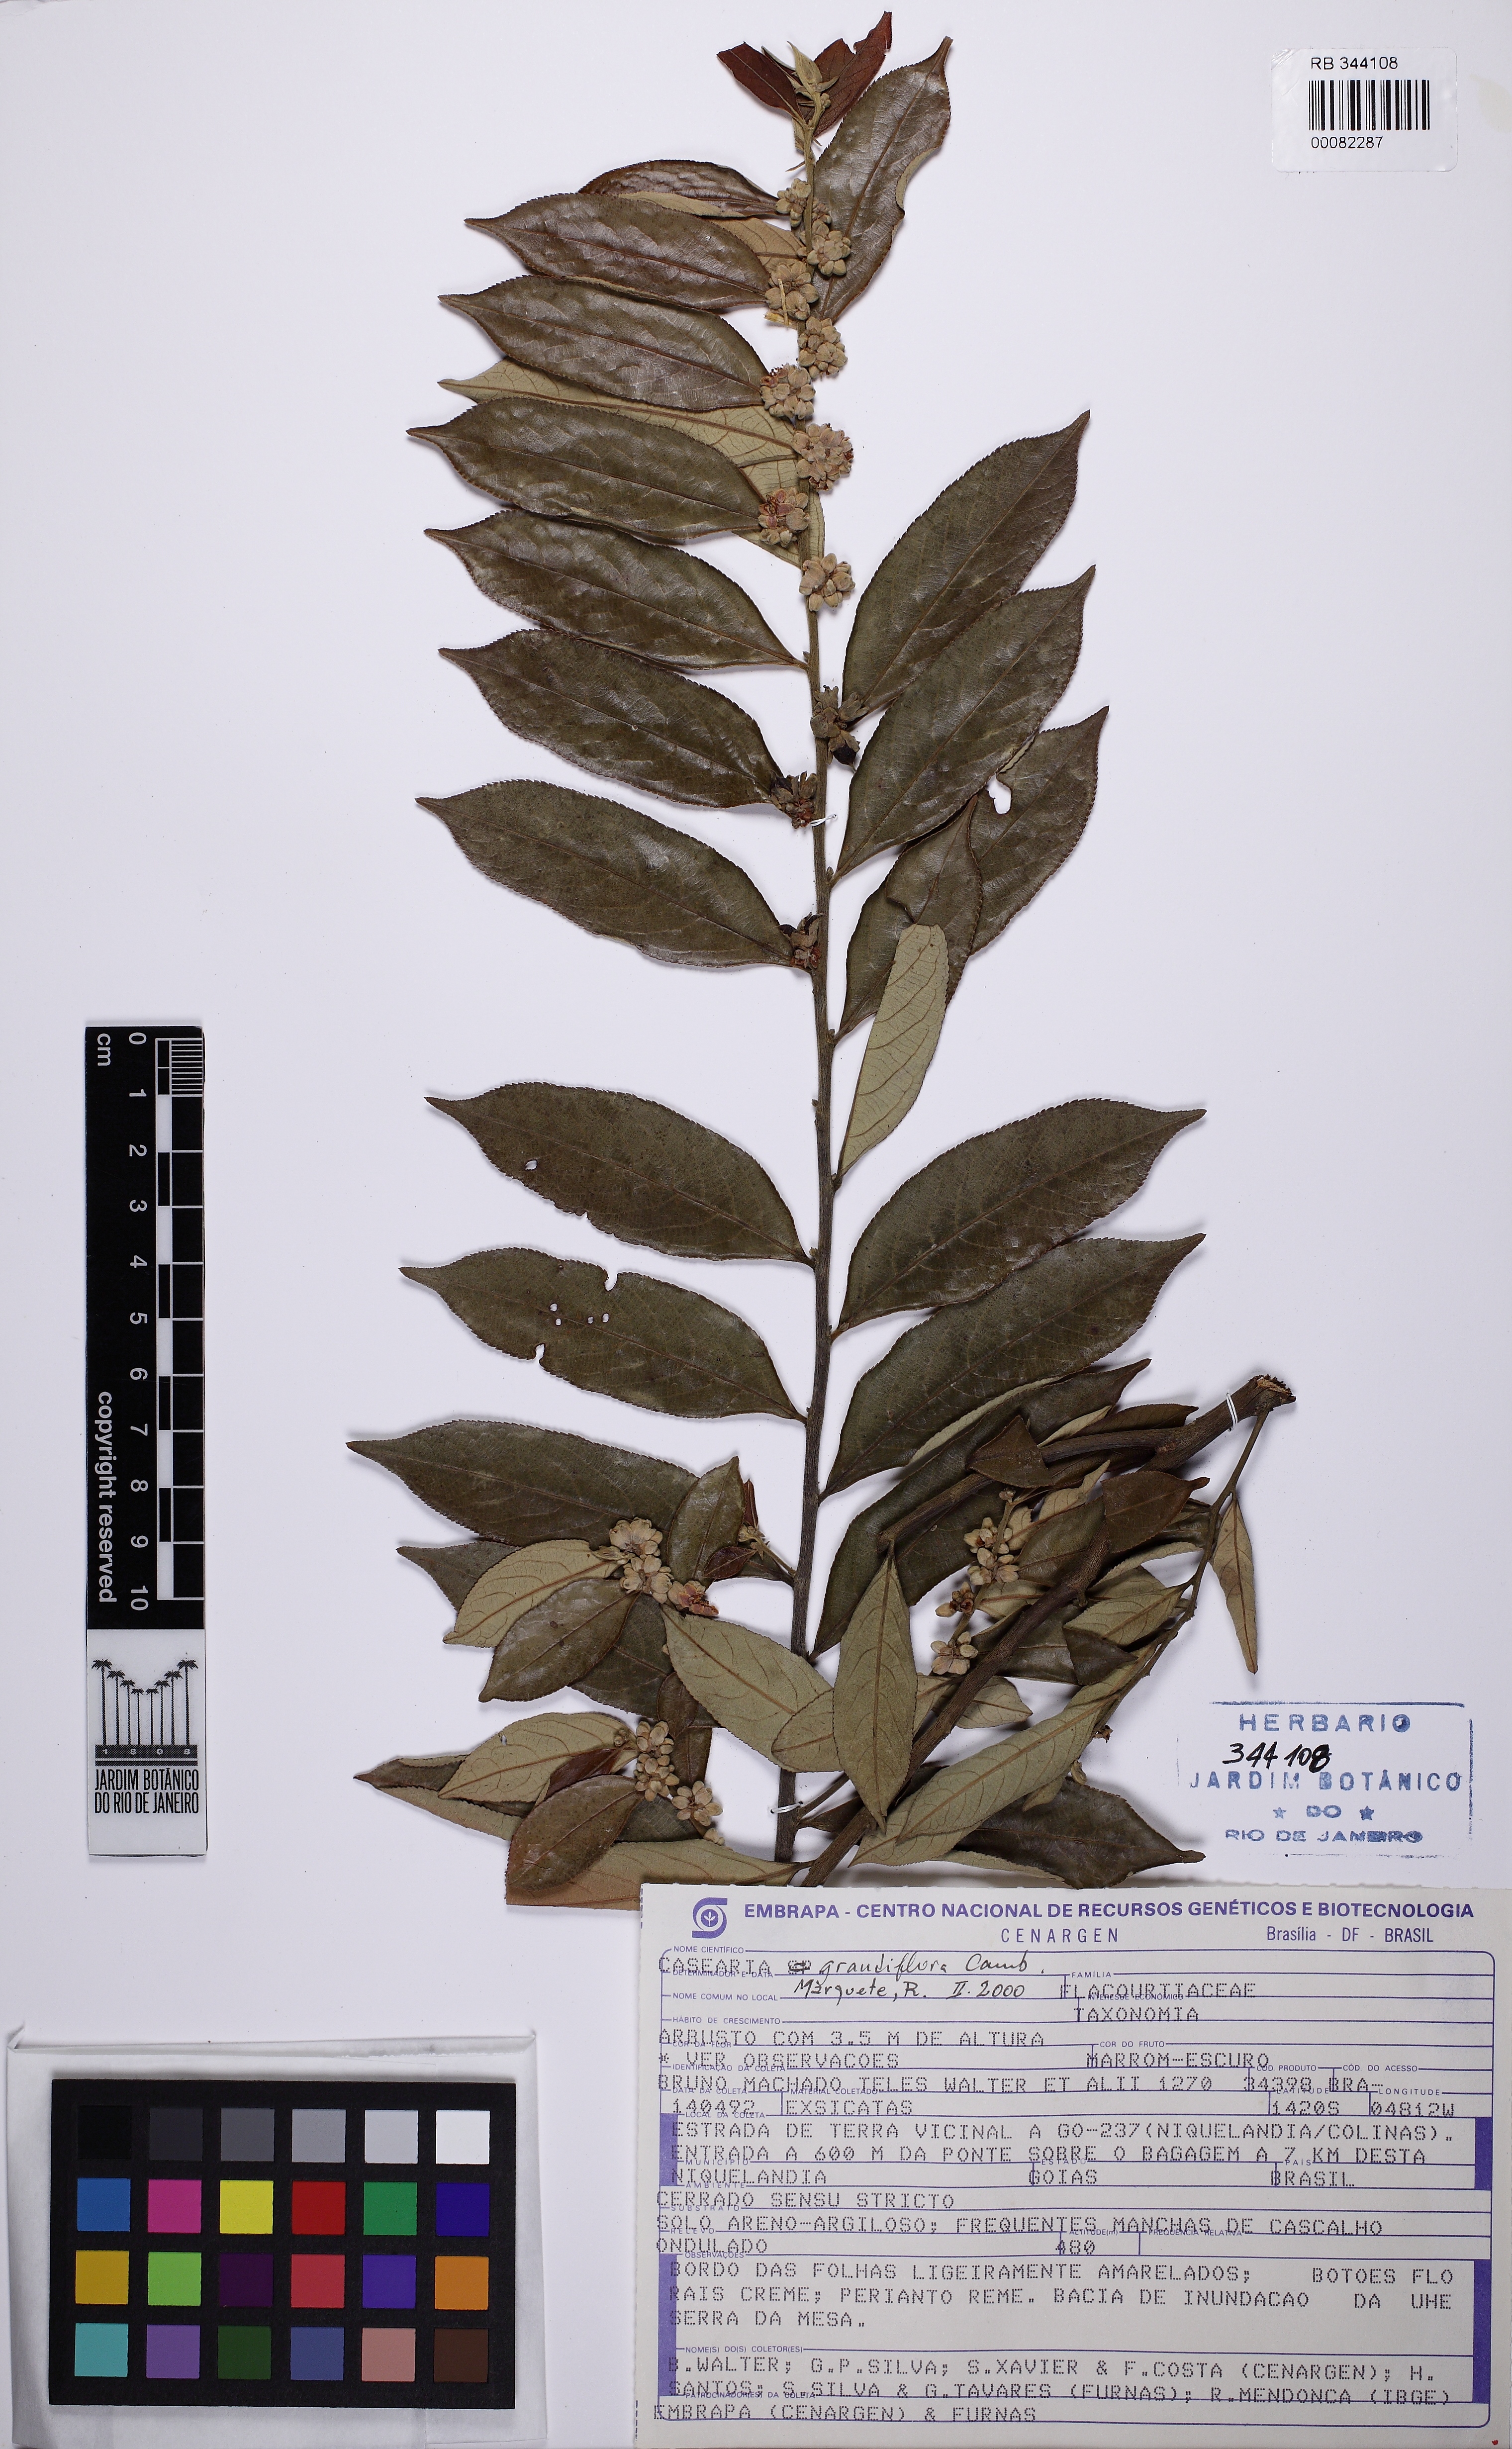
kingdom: Plantae
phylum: Tracheophyta
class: Magnoliopsida
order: Malpighiales
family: Salicaceae
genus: Casearia
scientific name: Casearia grandiflora
